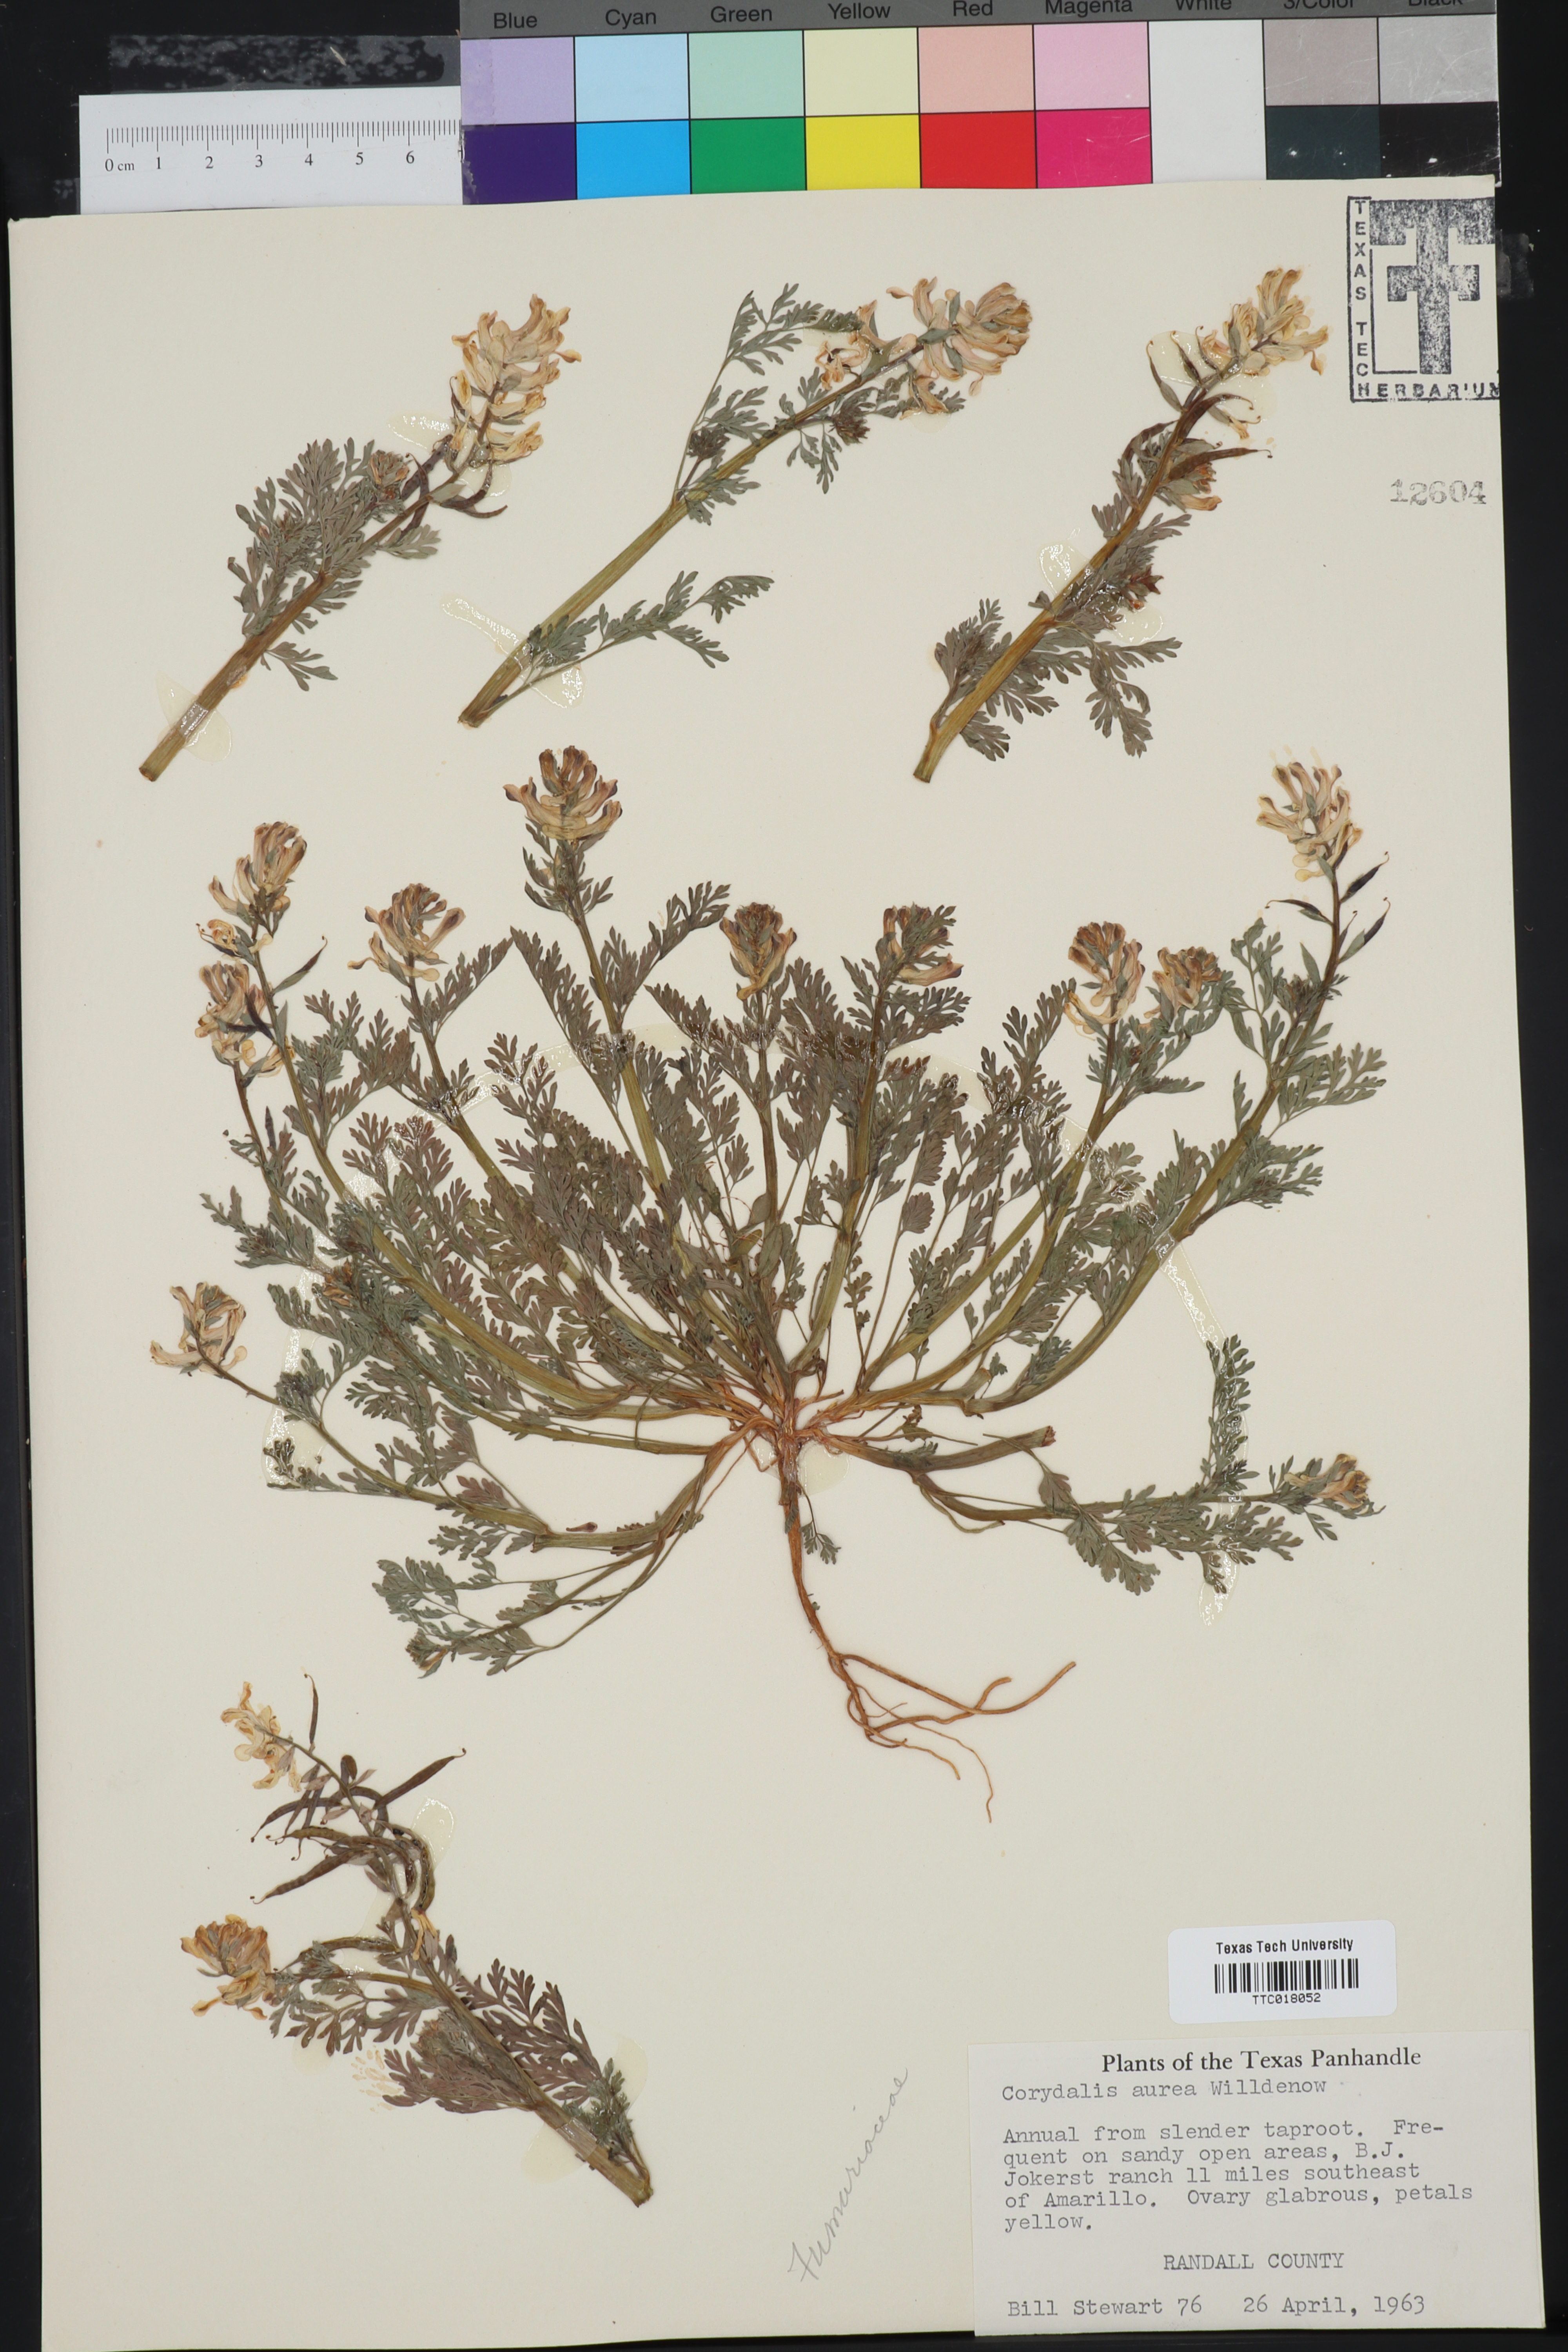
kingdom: Plantae
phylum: Tracheophyta
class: Magnoliopsida
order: Ranunculales
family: Papaveraceae
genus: Corydalis
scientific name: Corydalis aurea
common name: Golden corydalis
